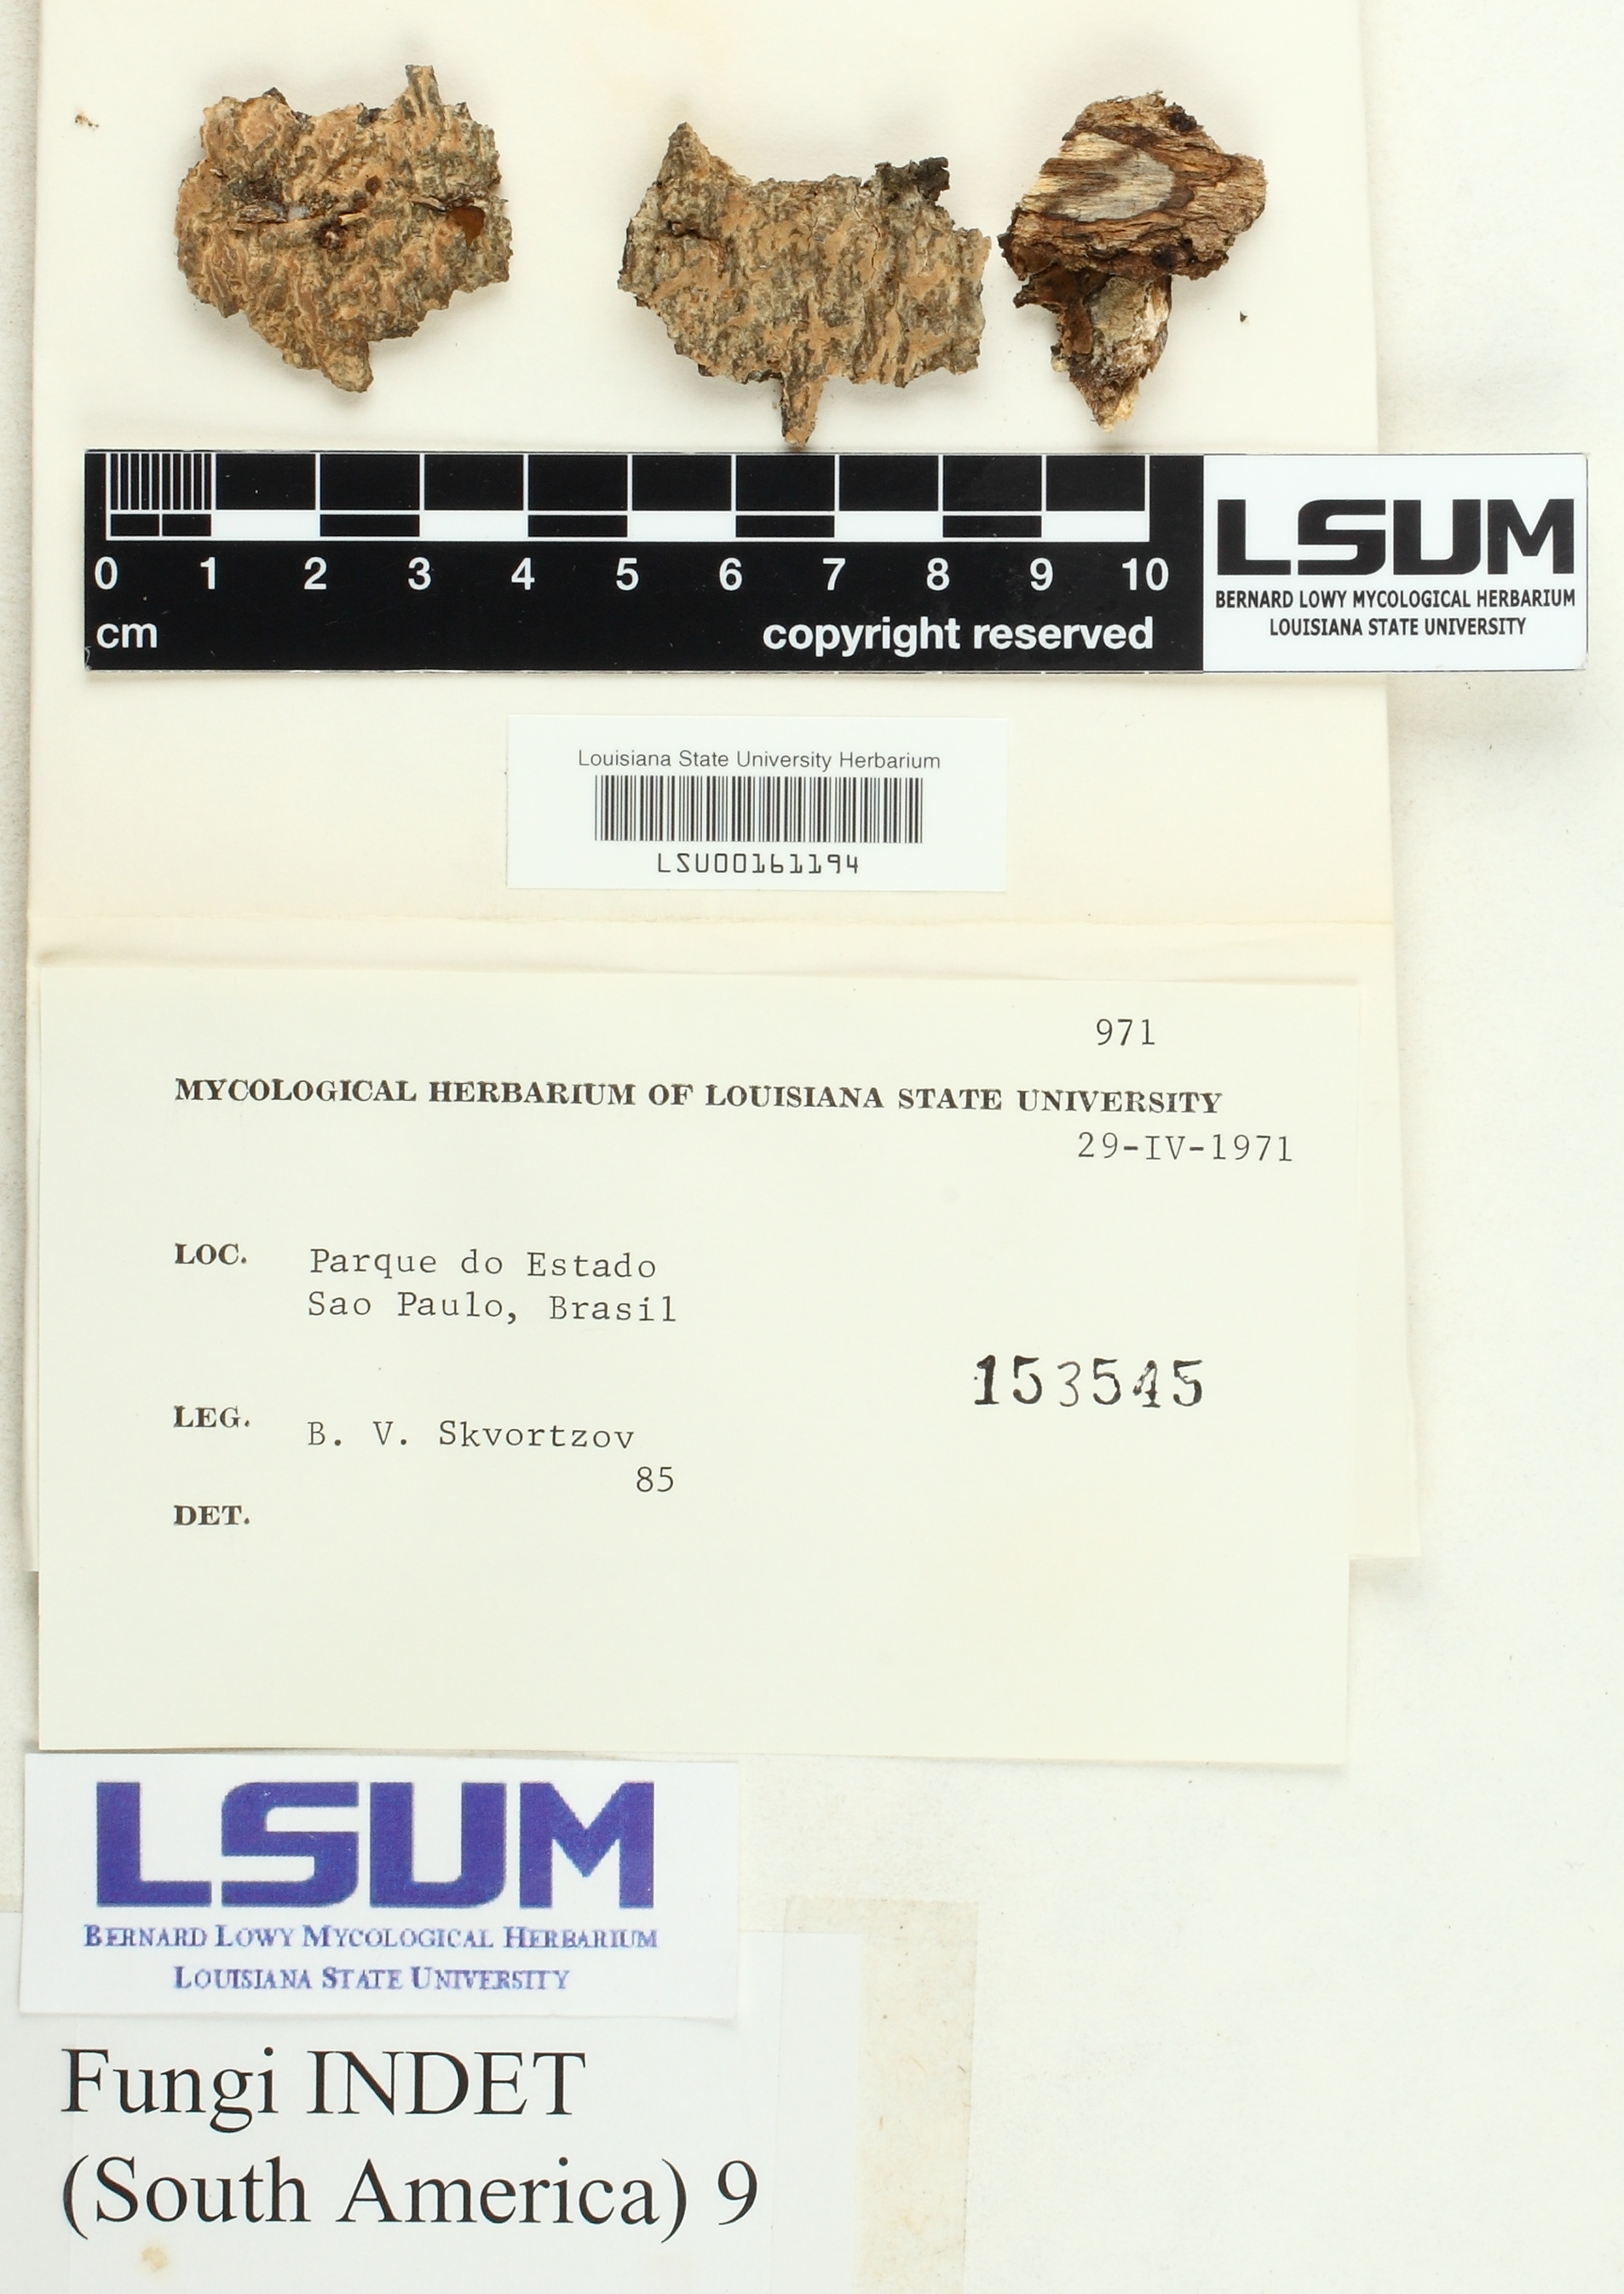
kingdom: Fungi
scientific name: Fungi
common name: Fungi
